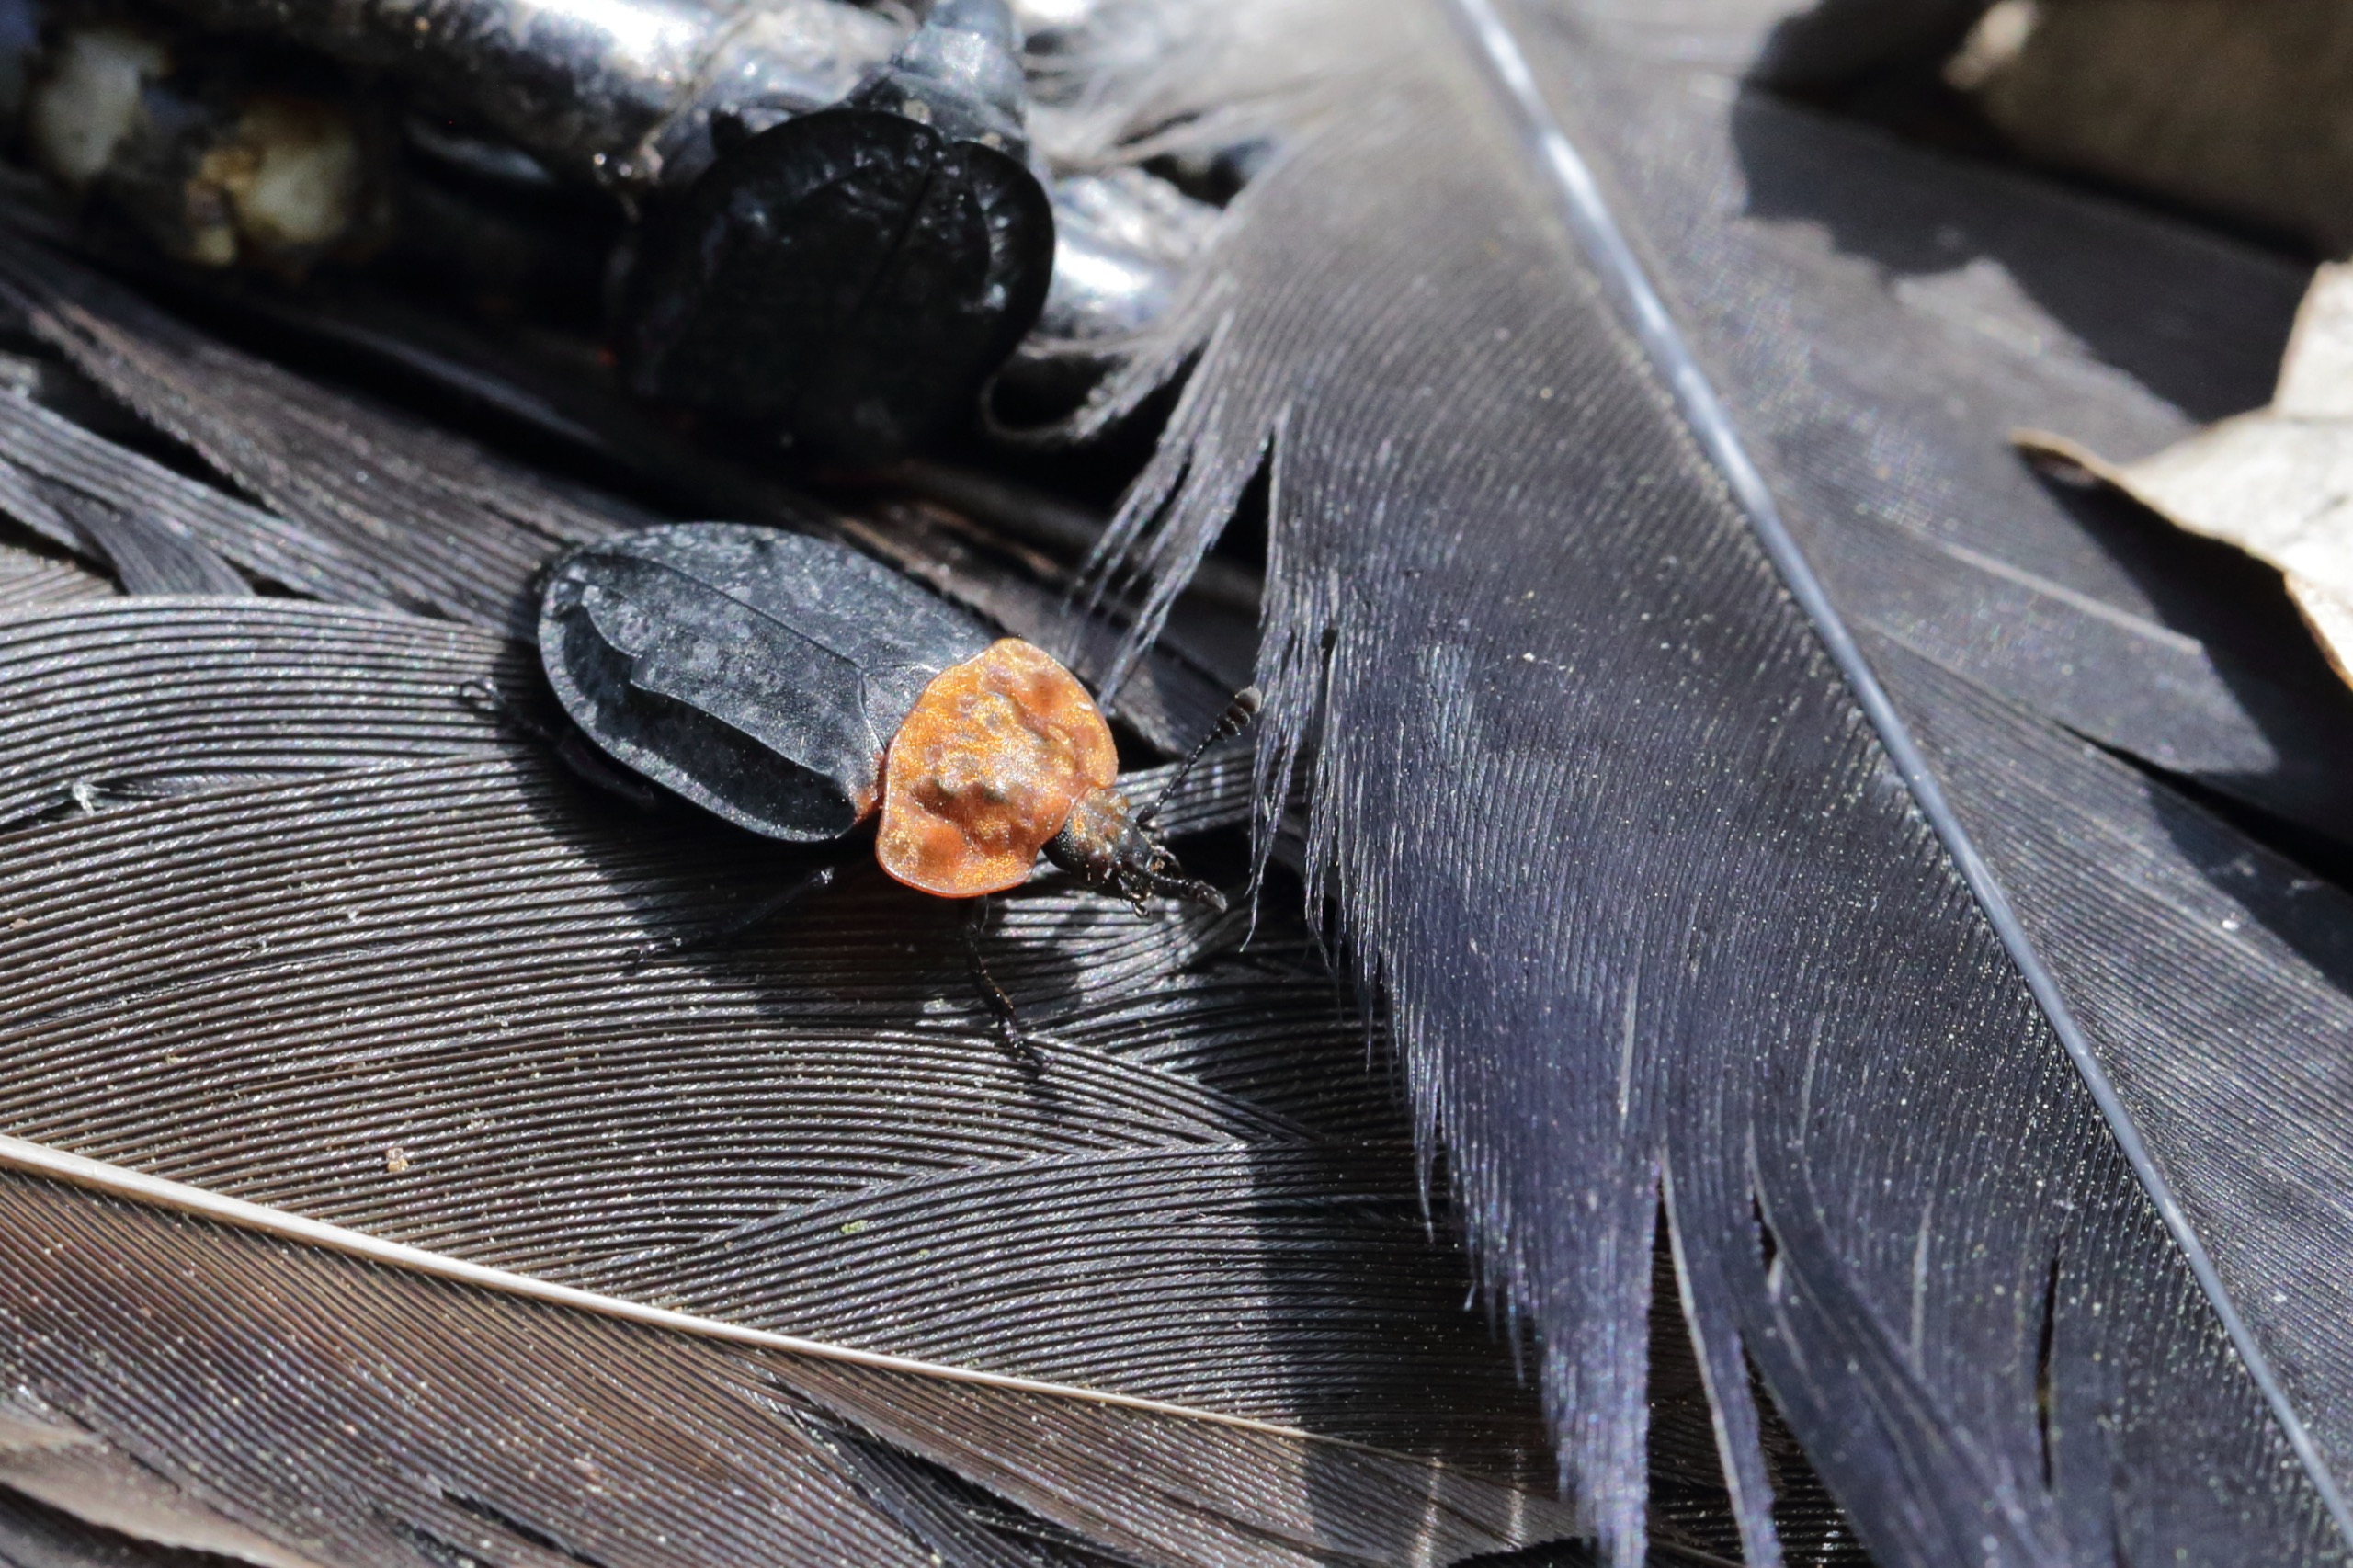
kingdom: Animalia
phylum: Arthropoda
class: Insecta
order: Coleoptera
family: Staphylinidae
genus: Oiceoptoma
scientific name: Oiceoptoma thoracicum
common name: Rødbrystet ådselbille
